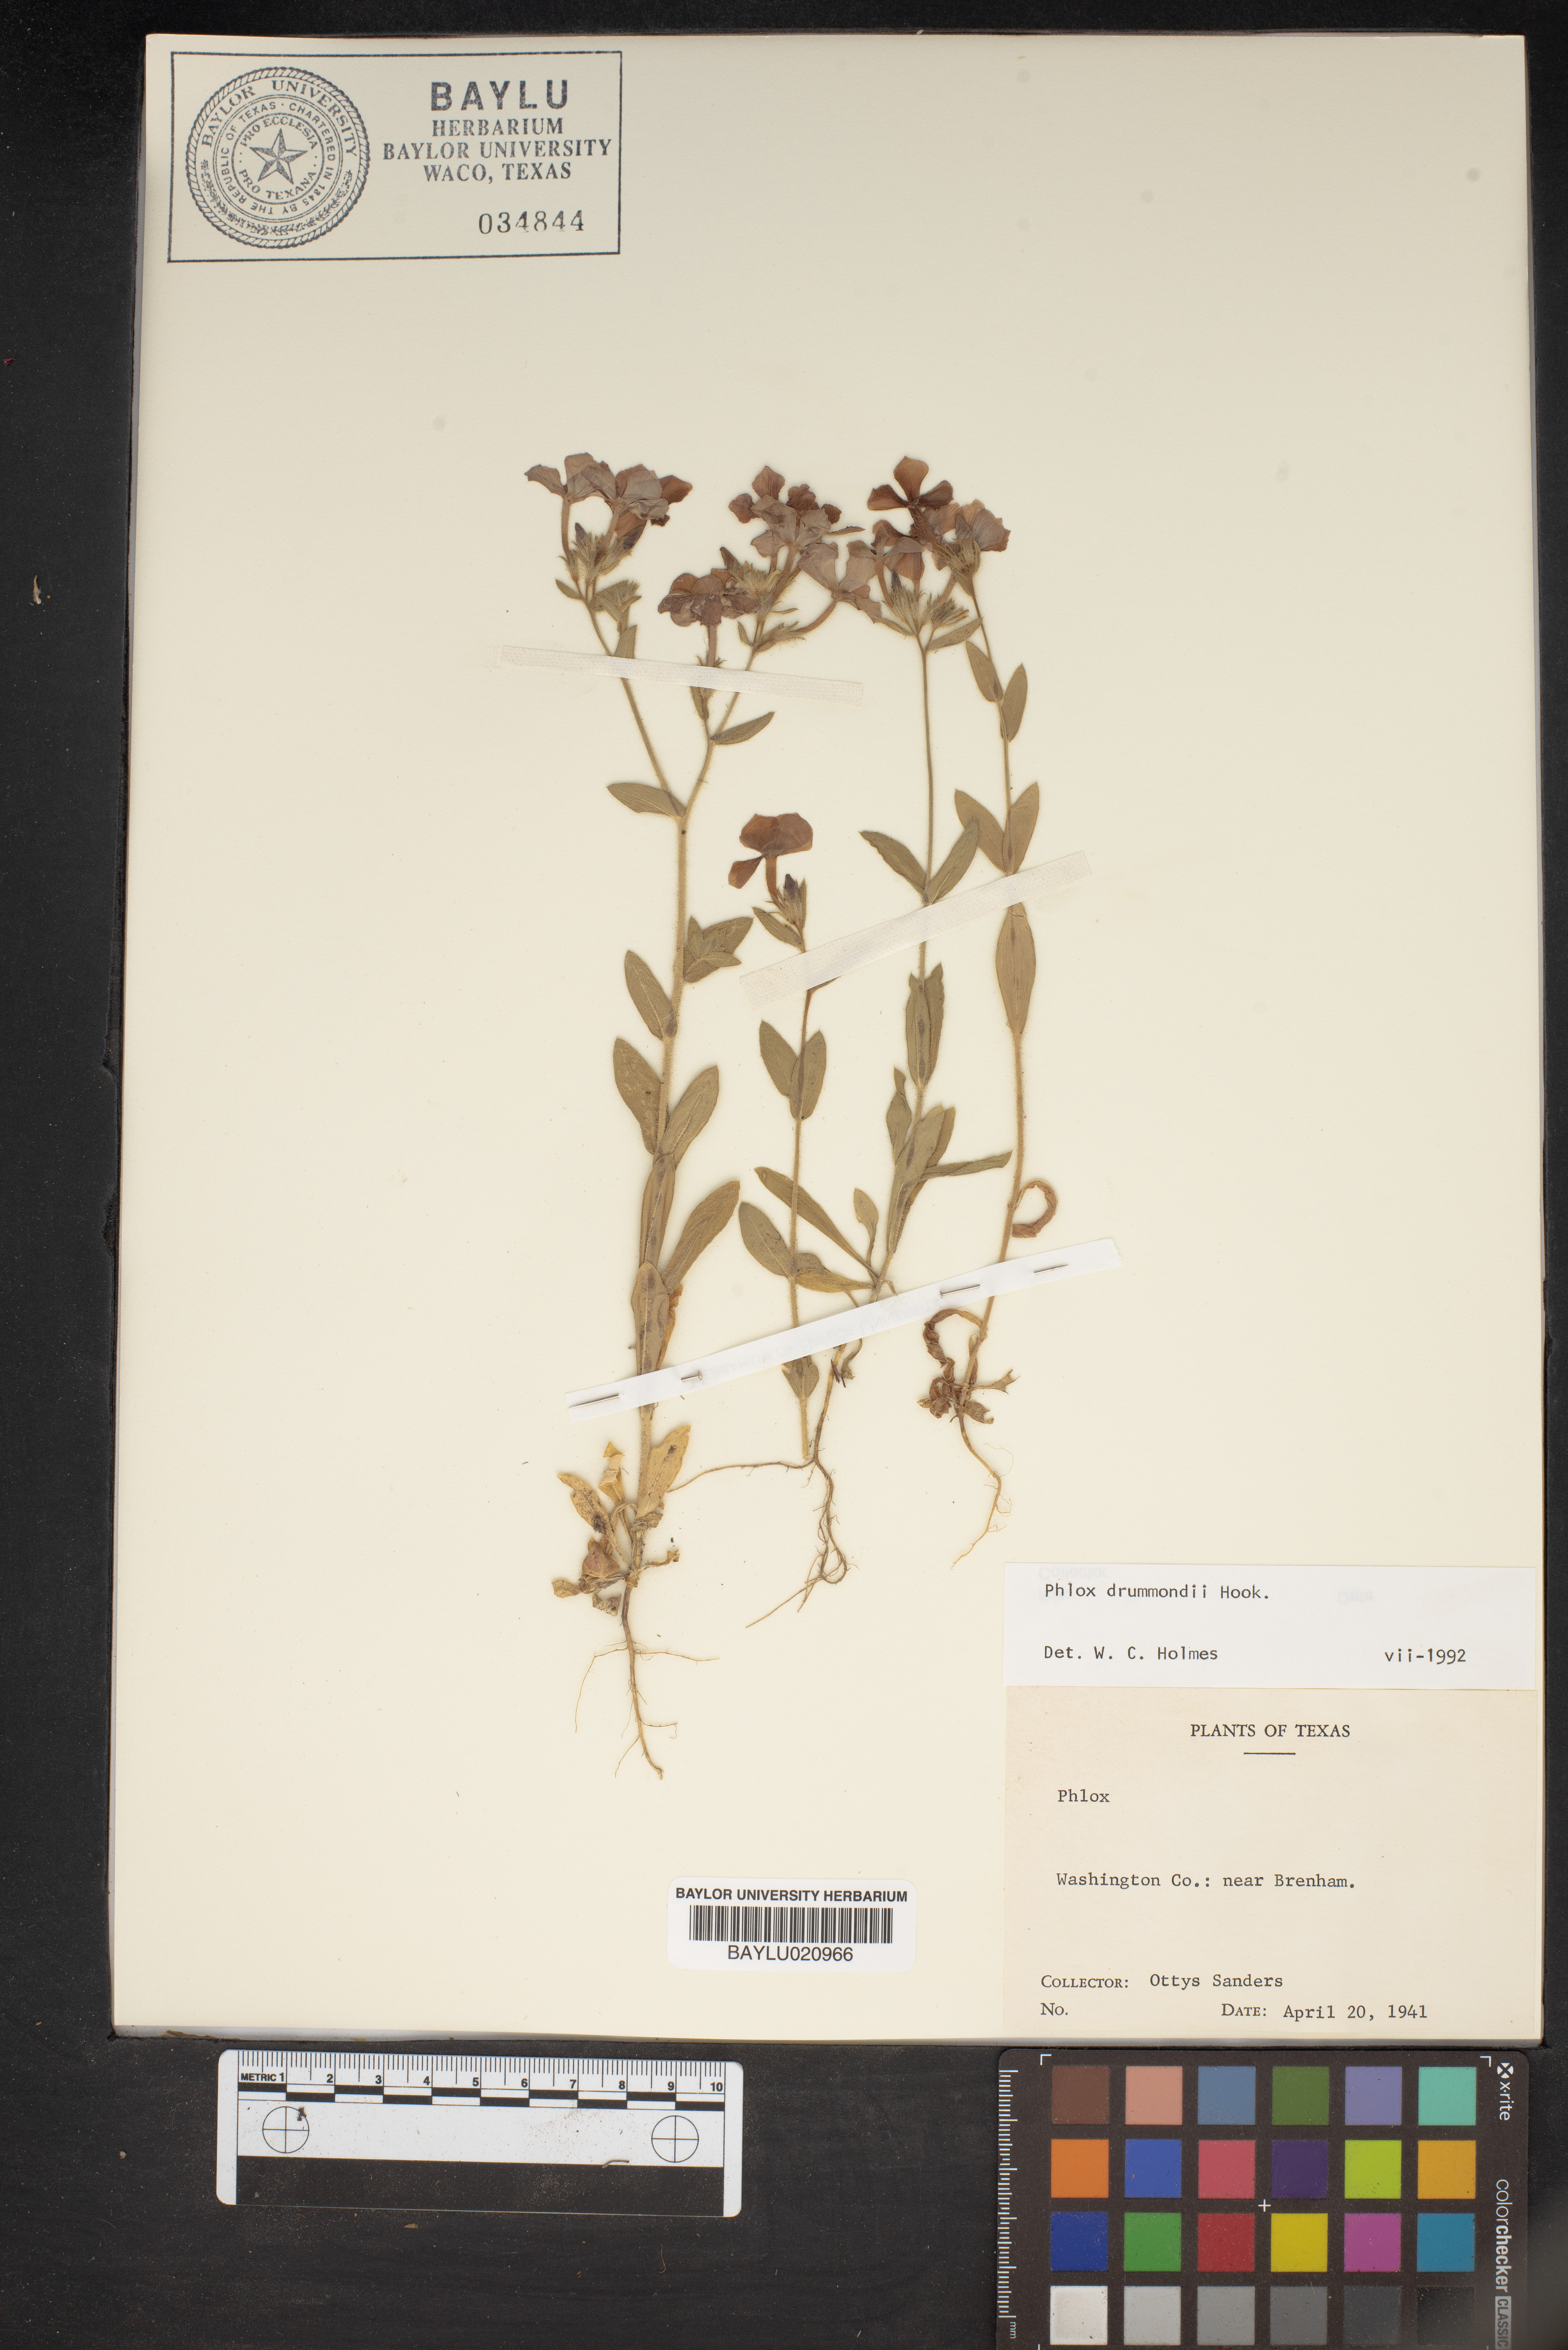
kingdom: Plantae
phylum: Tracheophyta
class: Magnoliopsida
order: Ericales
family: Polemoniaceae
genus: Phlox
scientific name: Phlox drummondii
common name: Drummond's phlox
